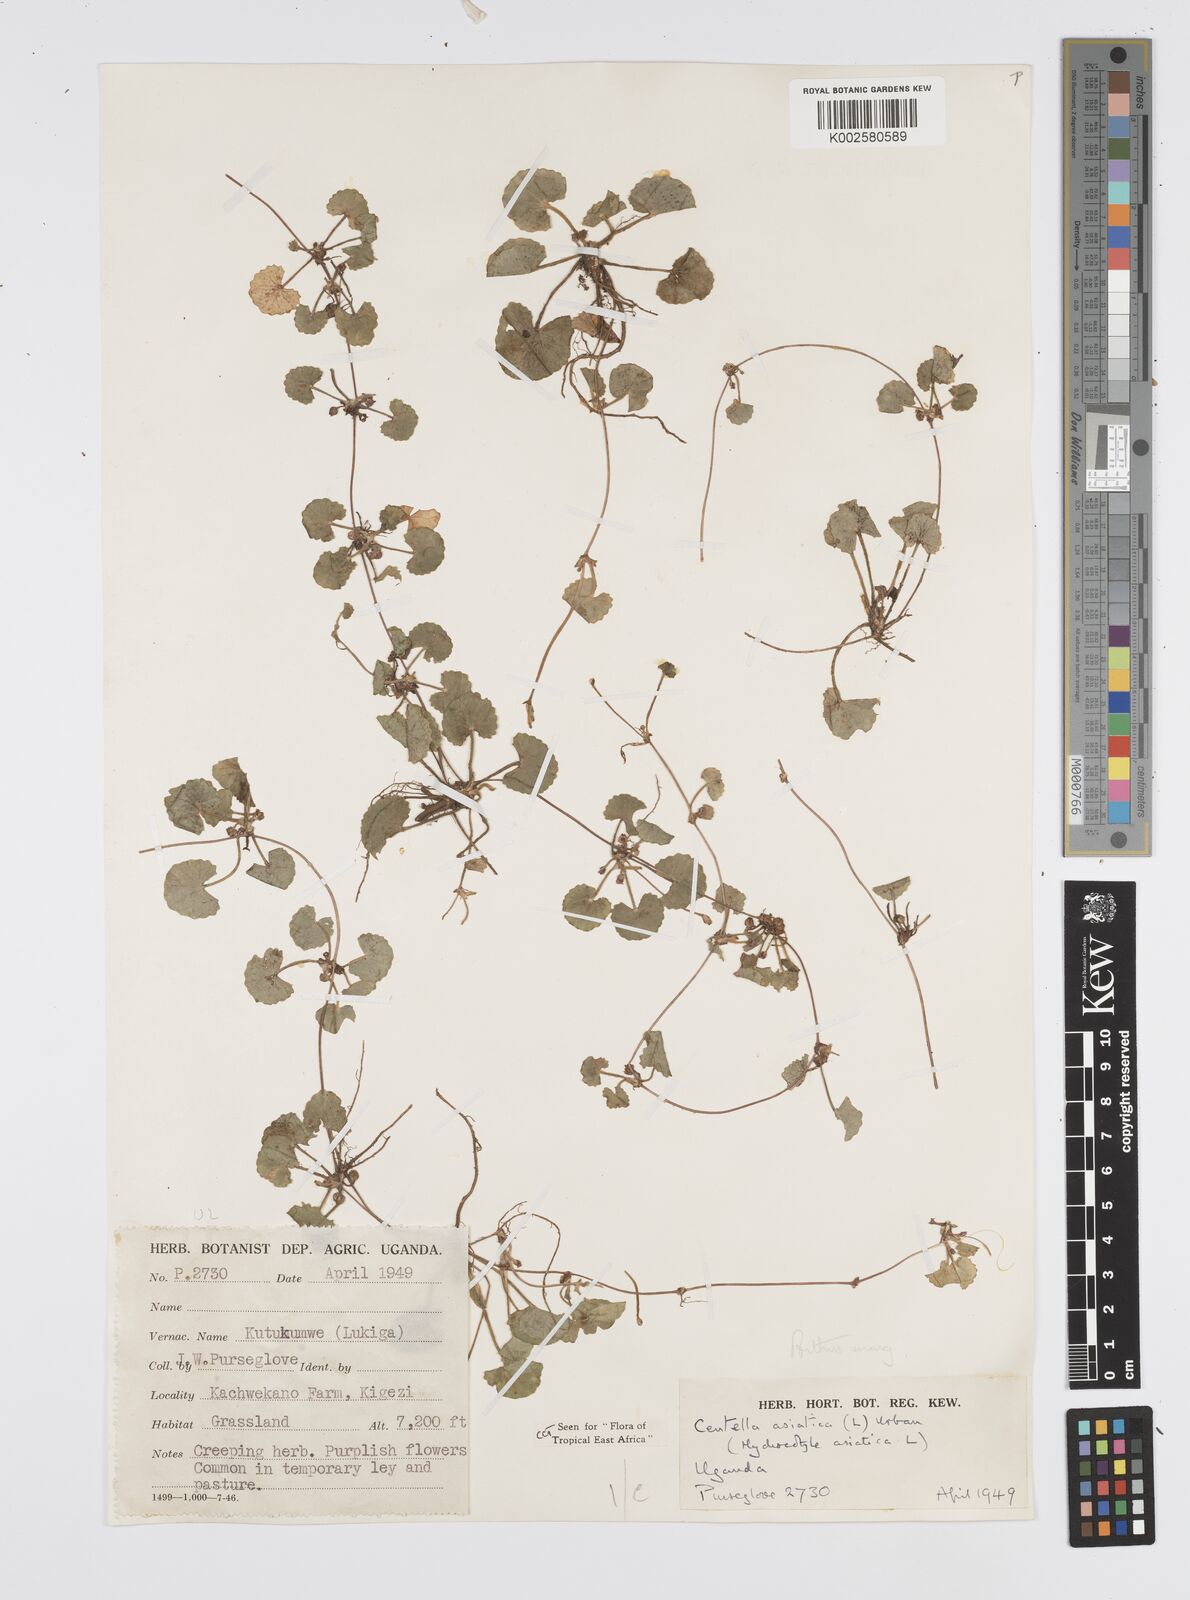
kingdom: Plantae
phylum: Tracheophyta
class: Magnoliopsida
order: Apiales
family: Apiaceae
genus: Centella
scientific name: Centella asiatica
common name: Spadeleaf
